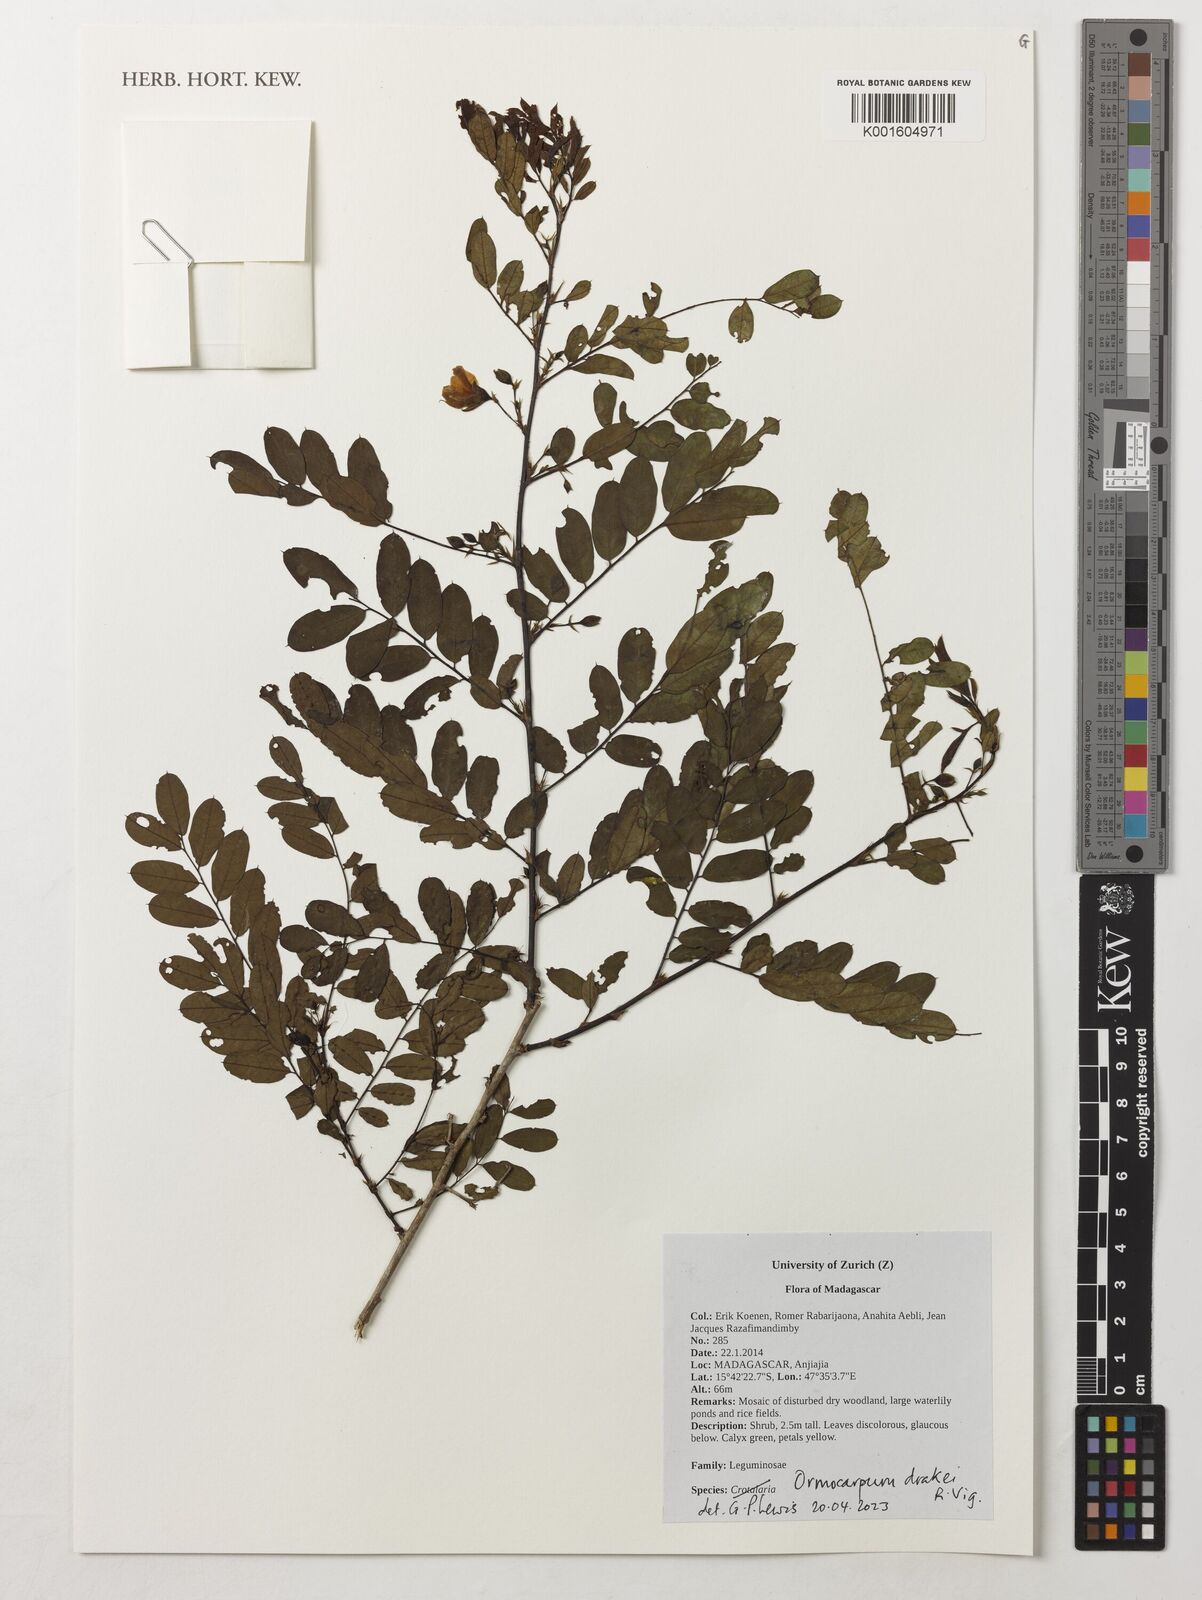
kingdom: Plantae
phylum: Tracheophyta
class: Magnoliopsida
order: Fabales
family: Fabaceae
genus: Ormocarpum
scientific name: Ormocarpum drakei
